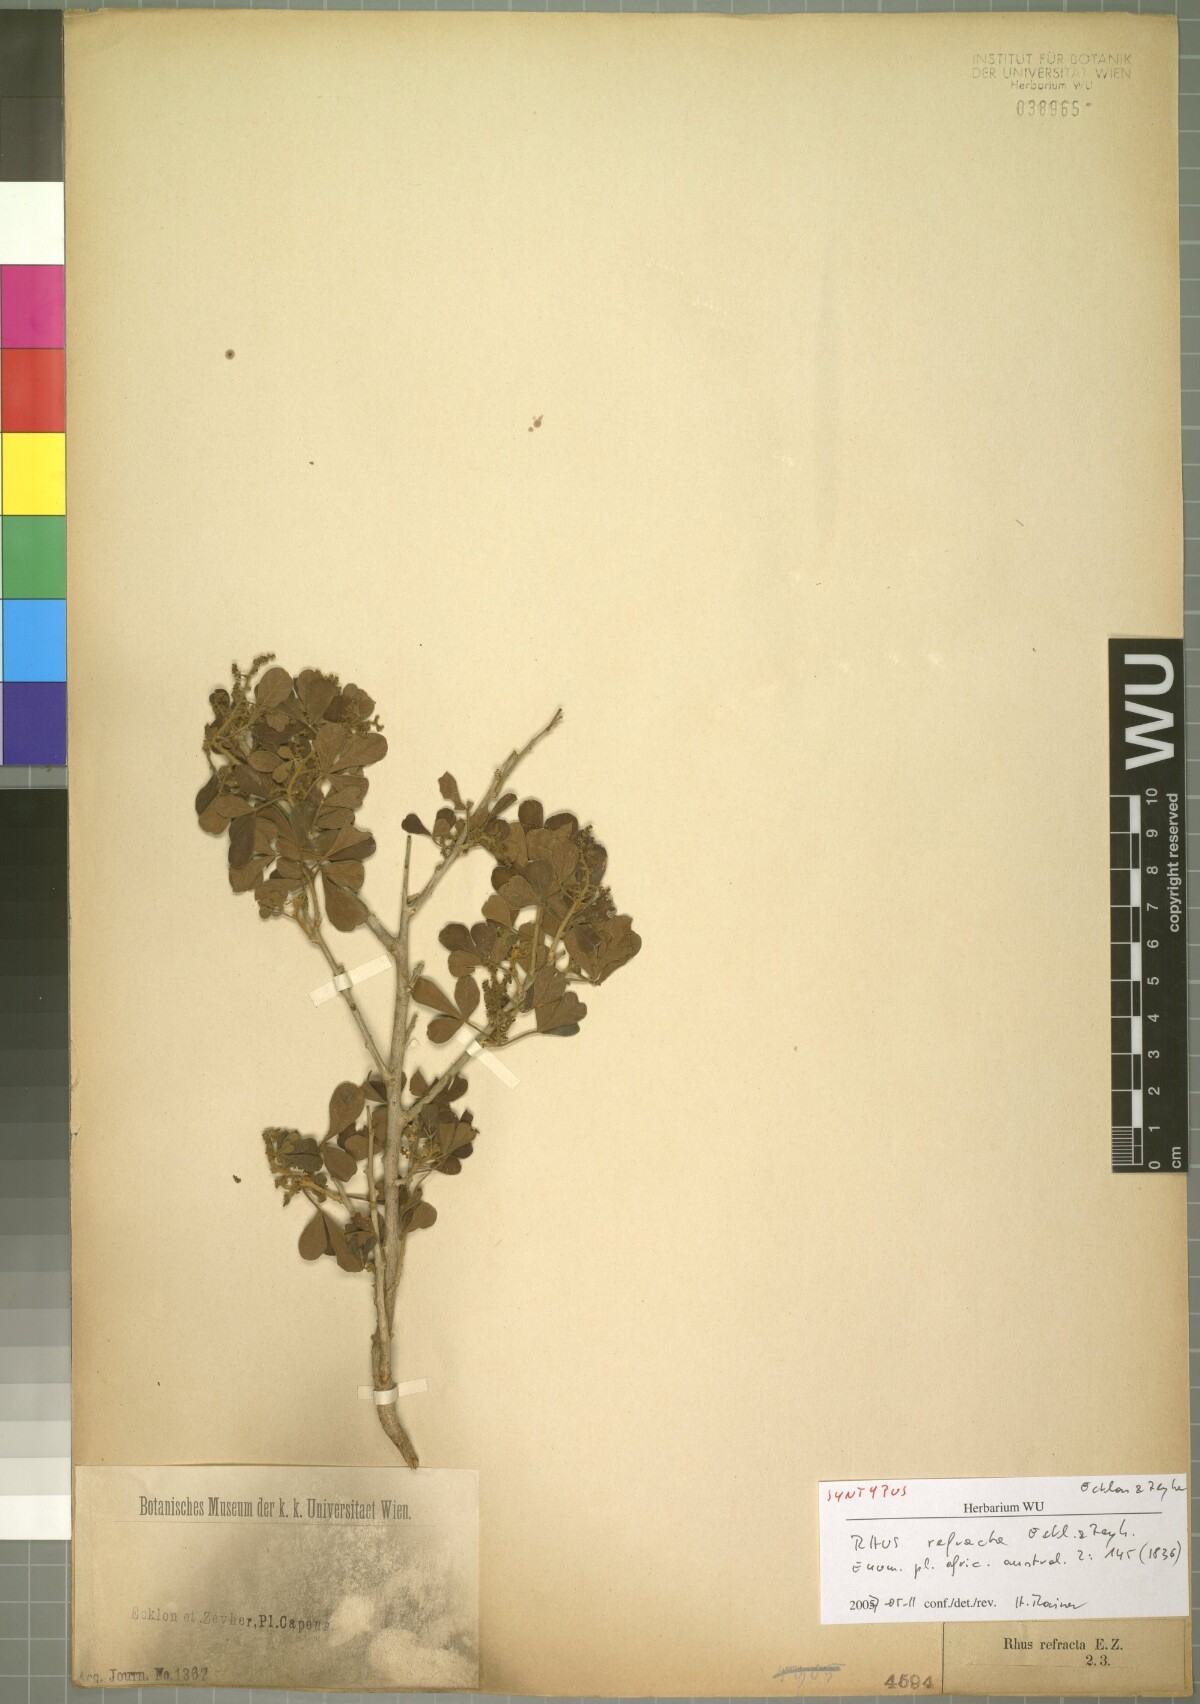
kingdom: Plantae
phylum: Tracheophyta
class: Magnoliopsida
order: Sapindales
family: Anacardiaceae
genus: Searsia
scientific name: Searsia refracta
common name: Thorny crow-berry
